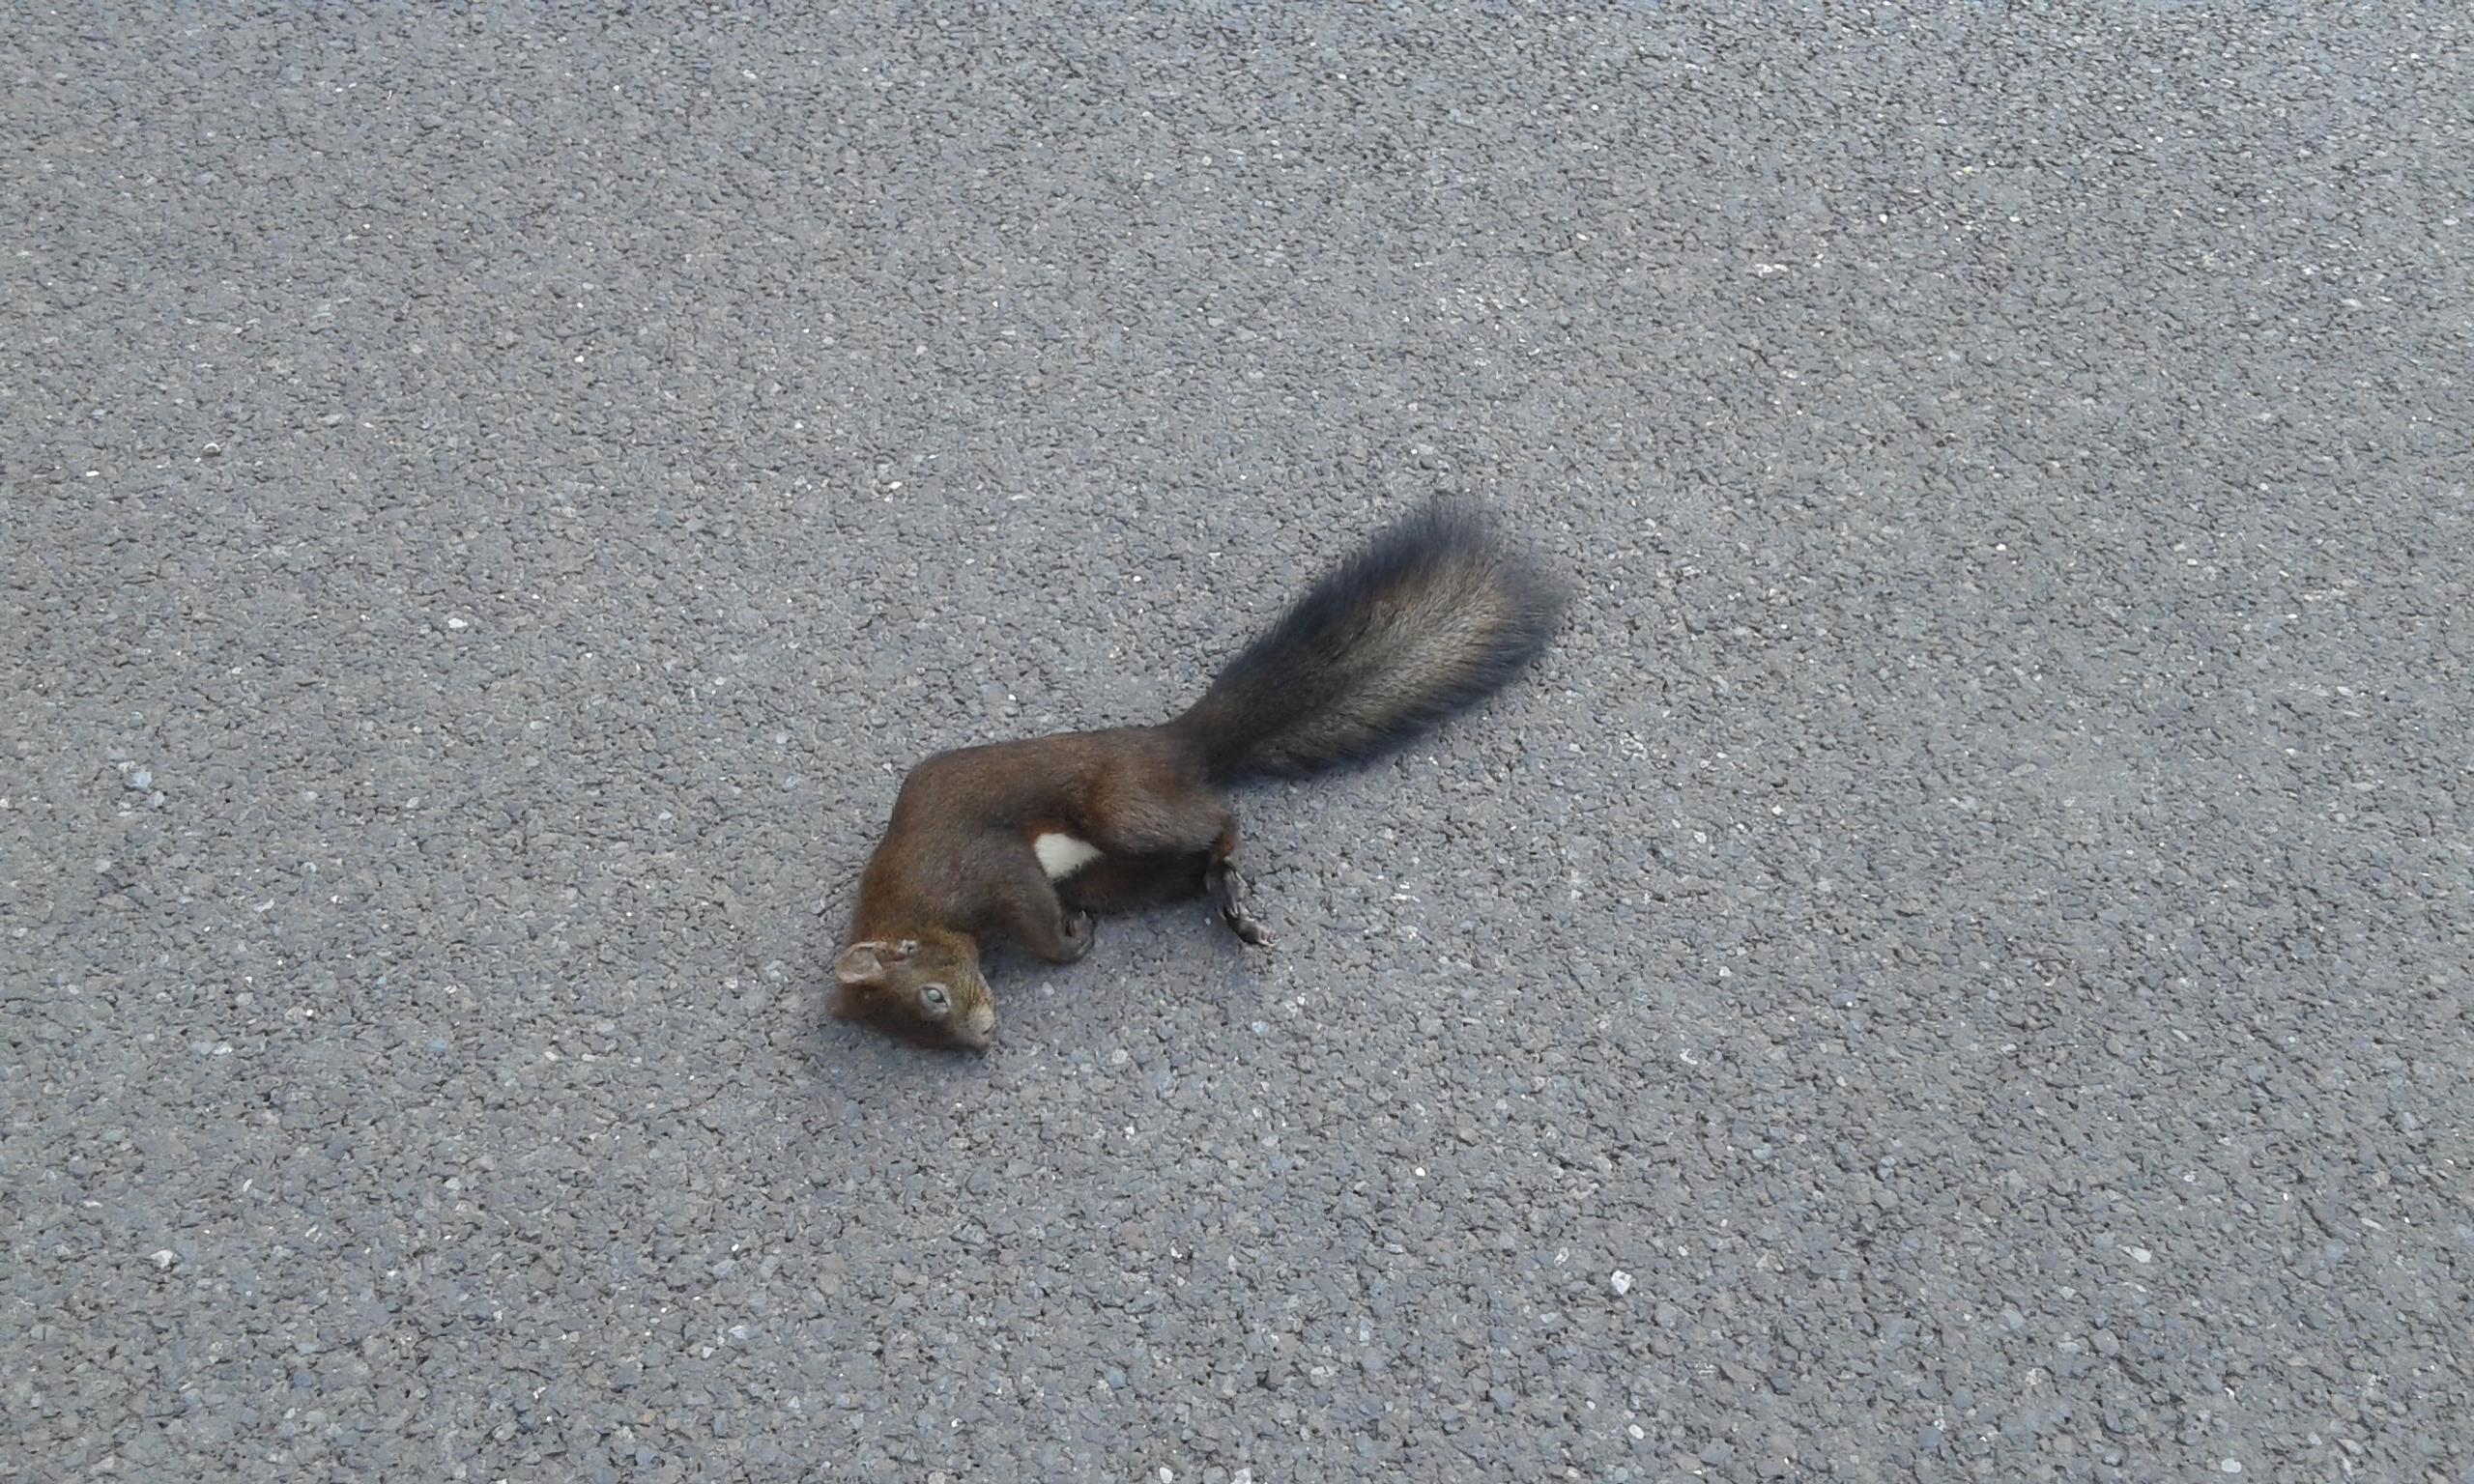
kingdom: Animalia
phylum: Chordata
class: Mammalia
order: Rodentia
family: Sciuridae
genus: Sciurus
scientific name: Sciurus vulgaris
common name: Eurasian red squirrel
